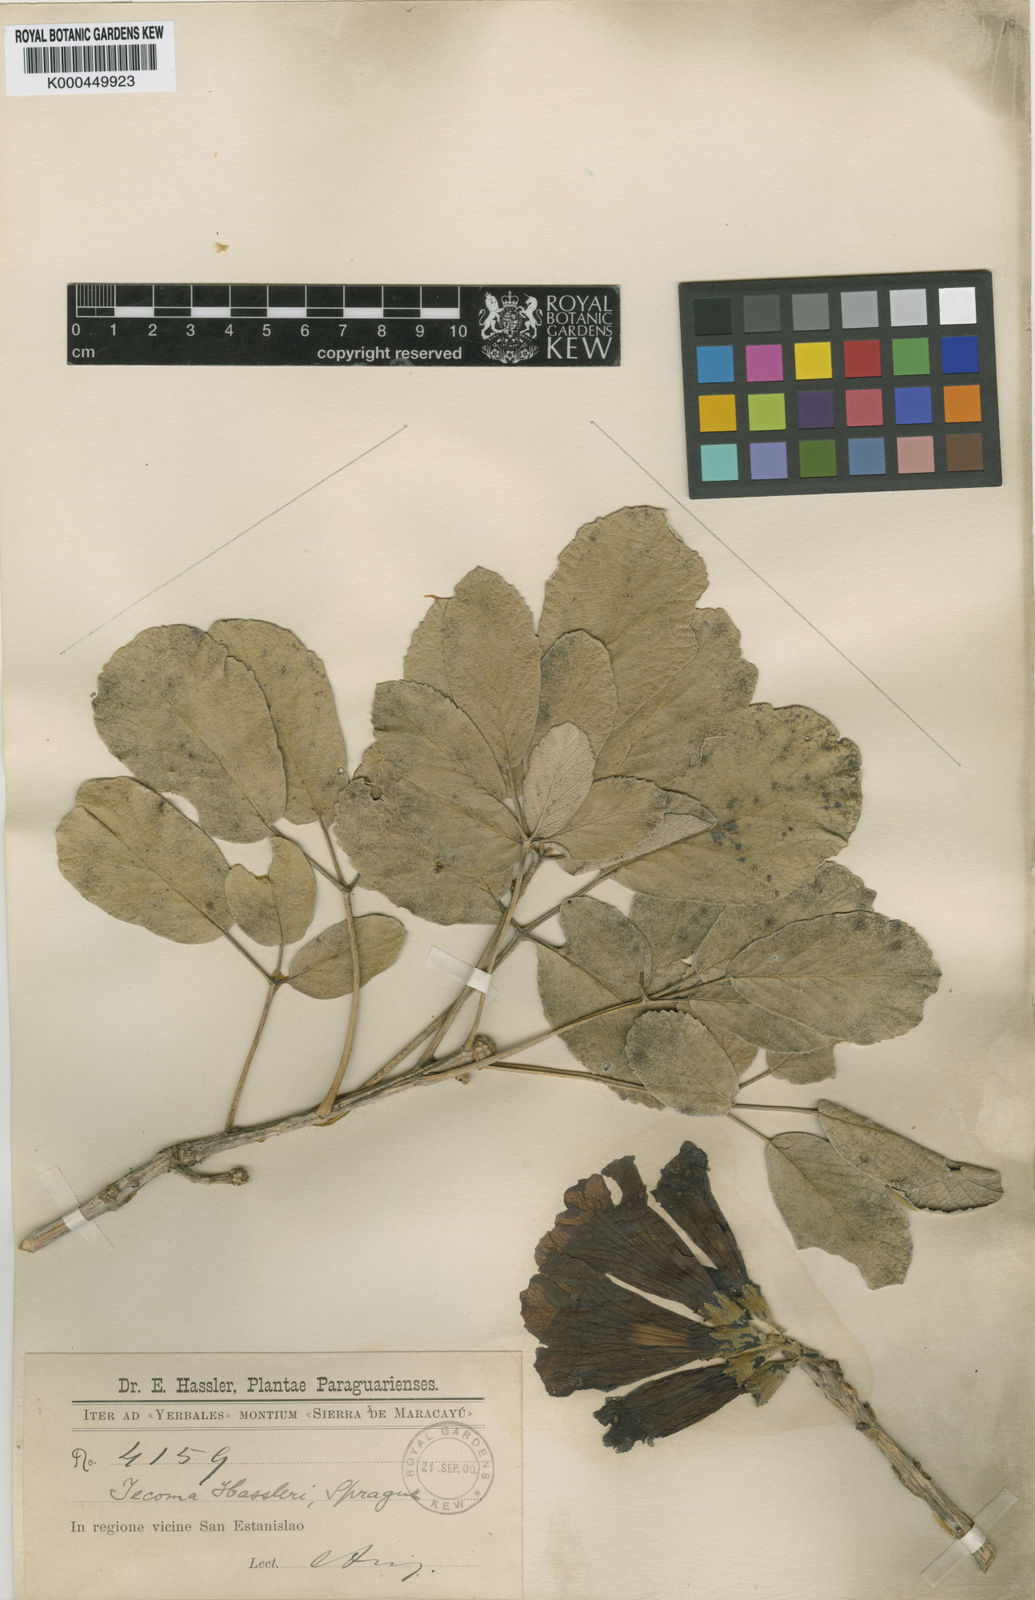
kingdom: Plantae
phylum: Tracheophyta
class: Magnoliopsida
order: Lamiales
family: Bignoniaceae
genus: Handroanthus
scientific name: Handroanthus ochraceus
